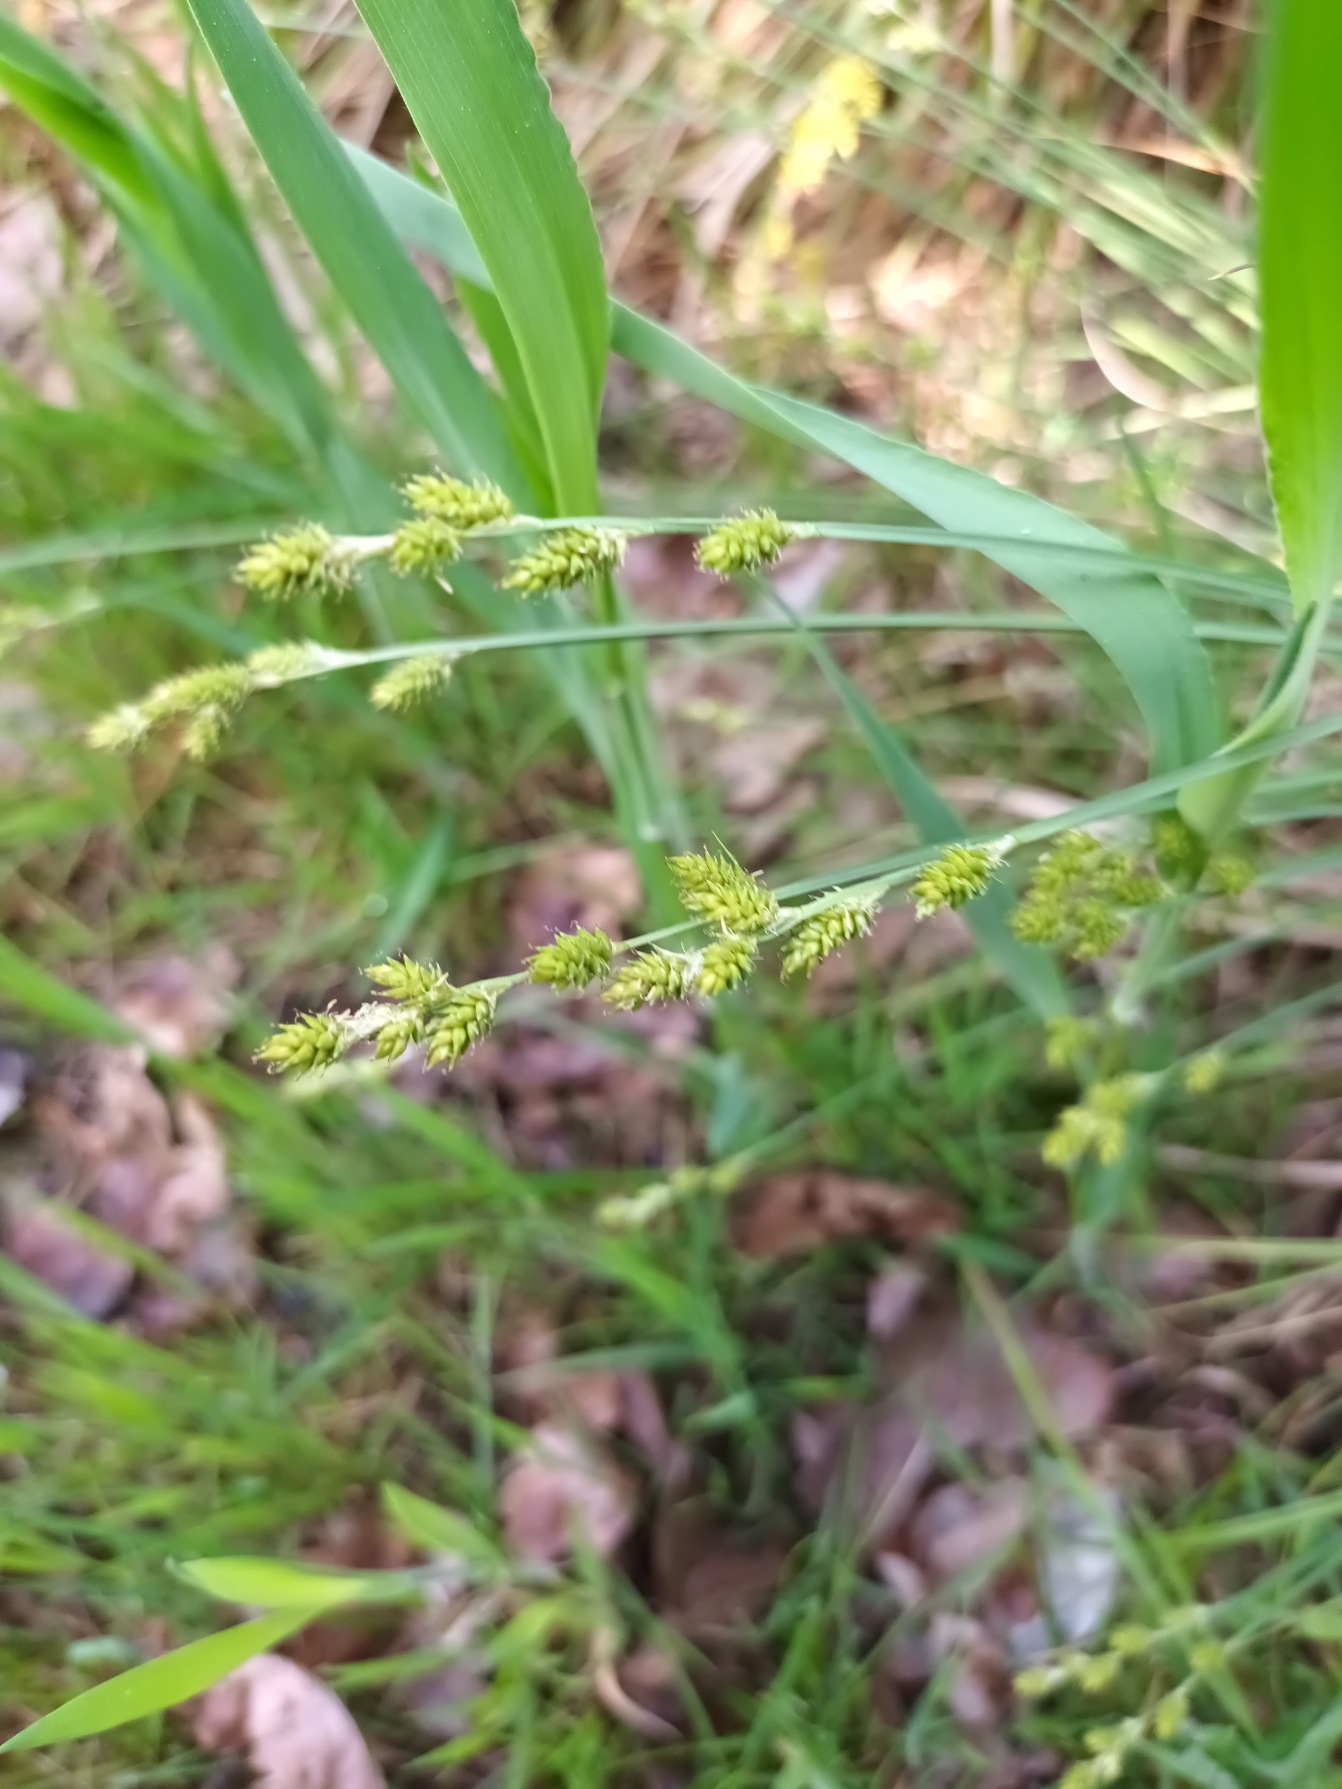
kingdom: Plantae
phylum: Tracheophyta
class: Liliopsida
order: Poales
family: Cyperaceae
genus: Carex
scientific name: Carex canescens
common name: Grå star
